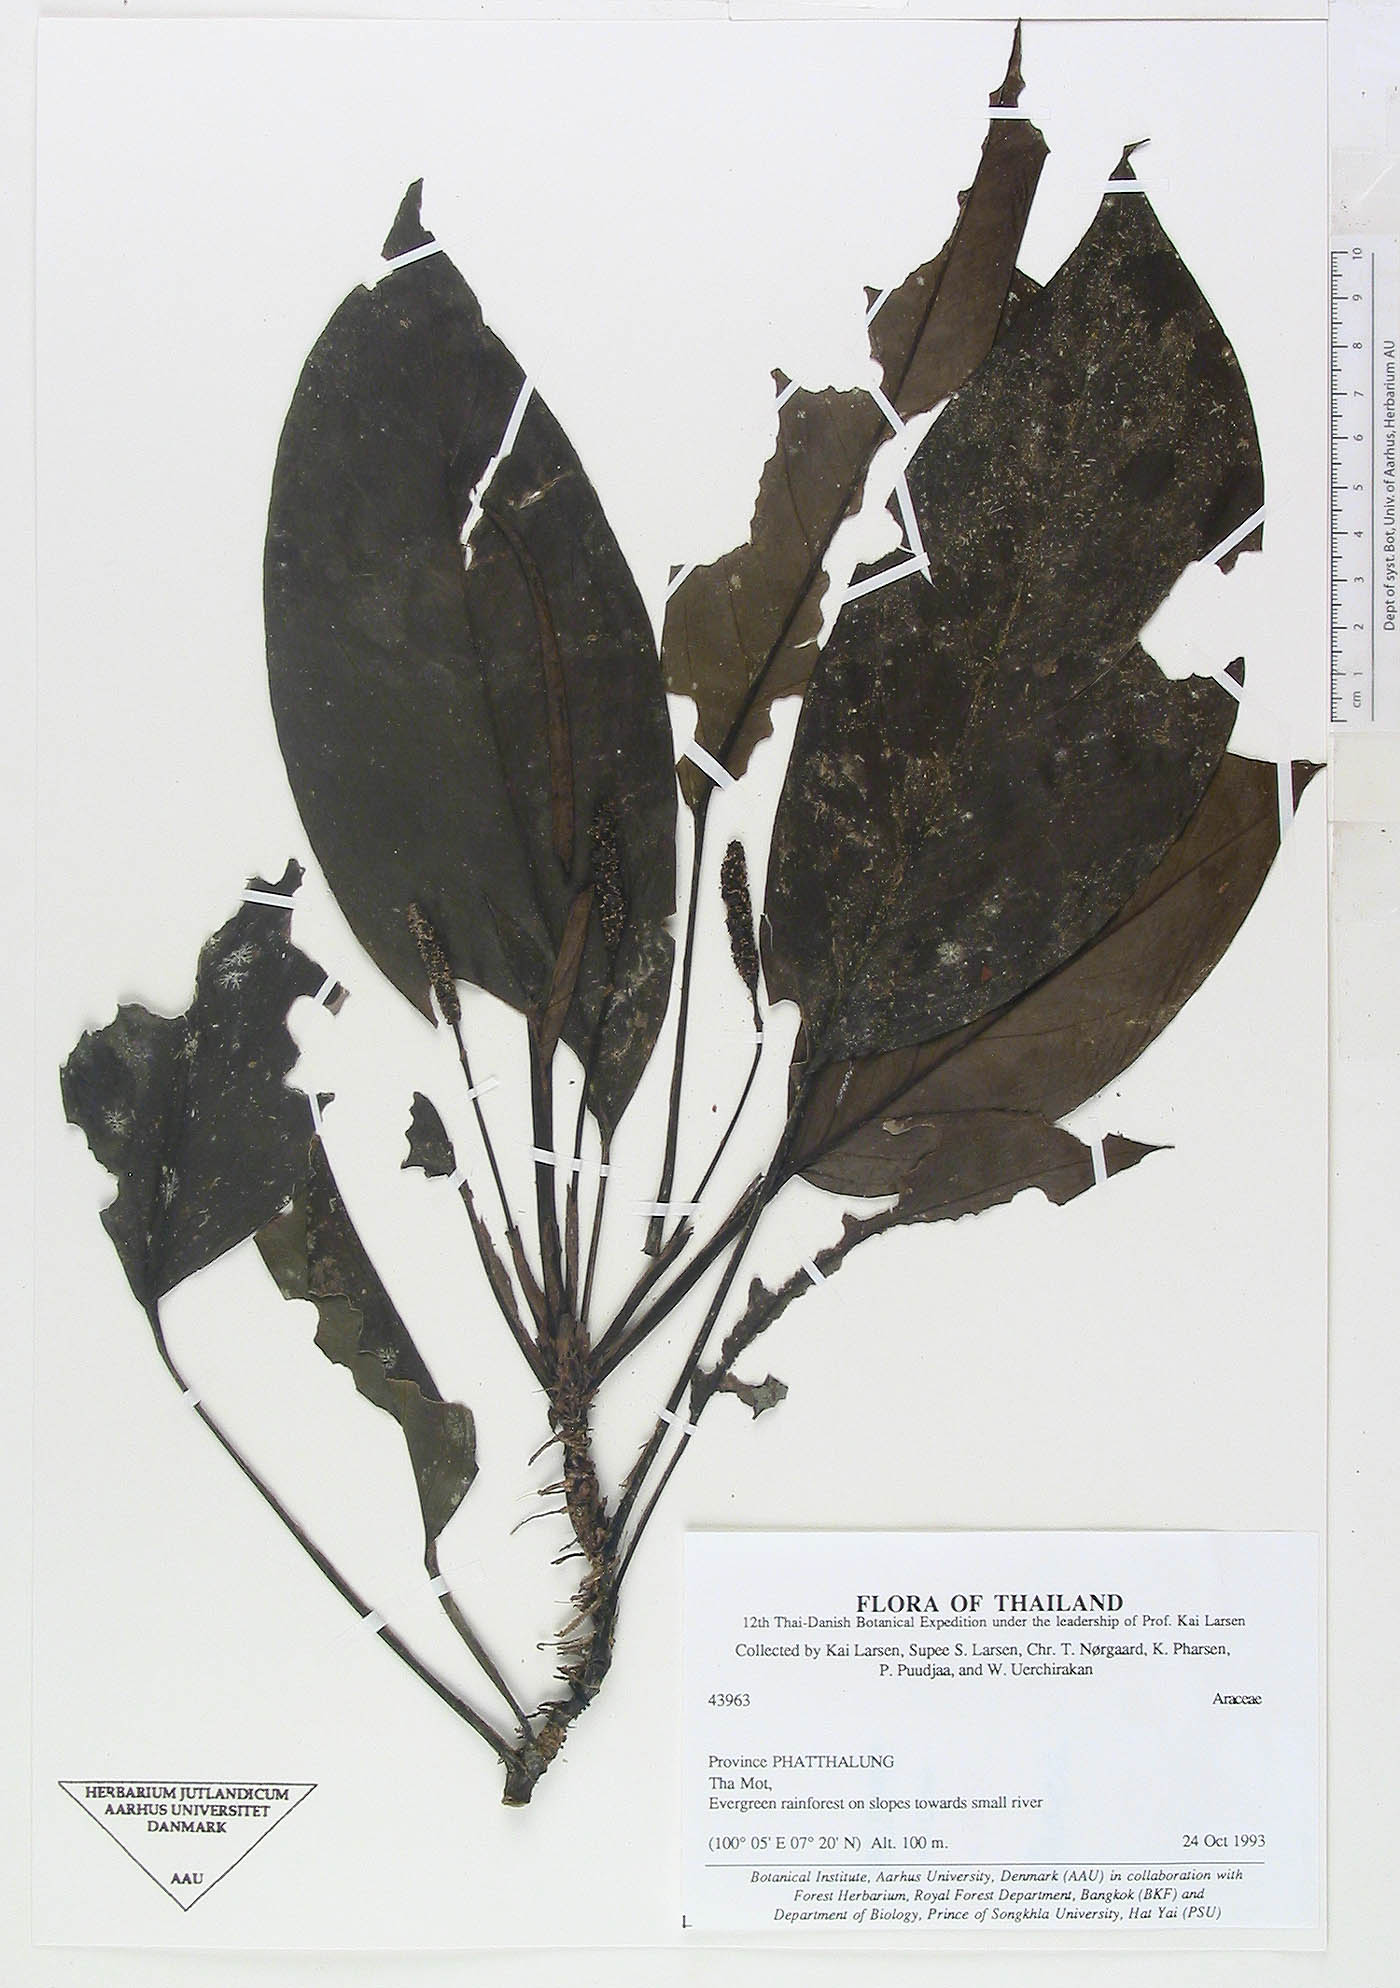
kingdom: Plantae
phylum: Tracheophyta
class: Liliopsida
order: Alismatales
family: Araceae
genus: Anadendrum
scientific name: Anadendrum marcesovaginatum
